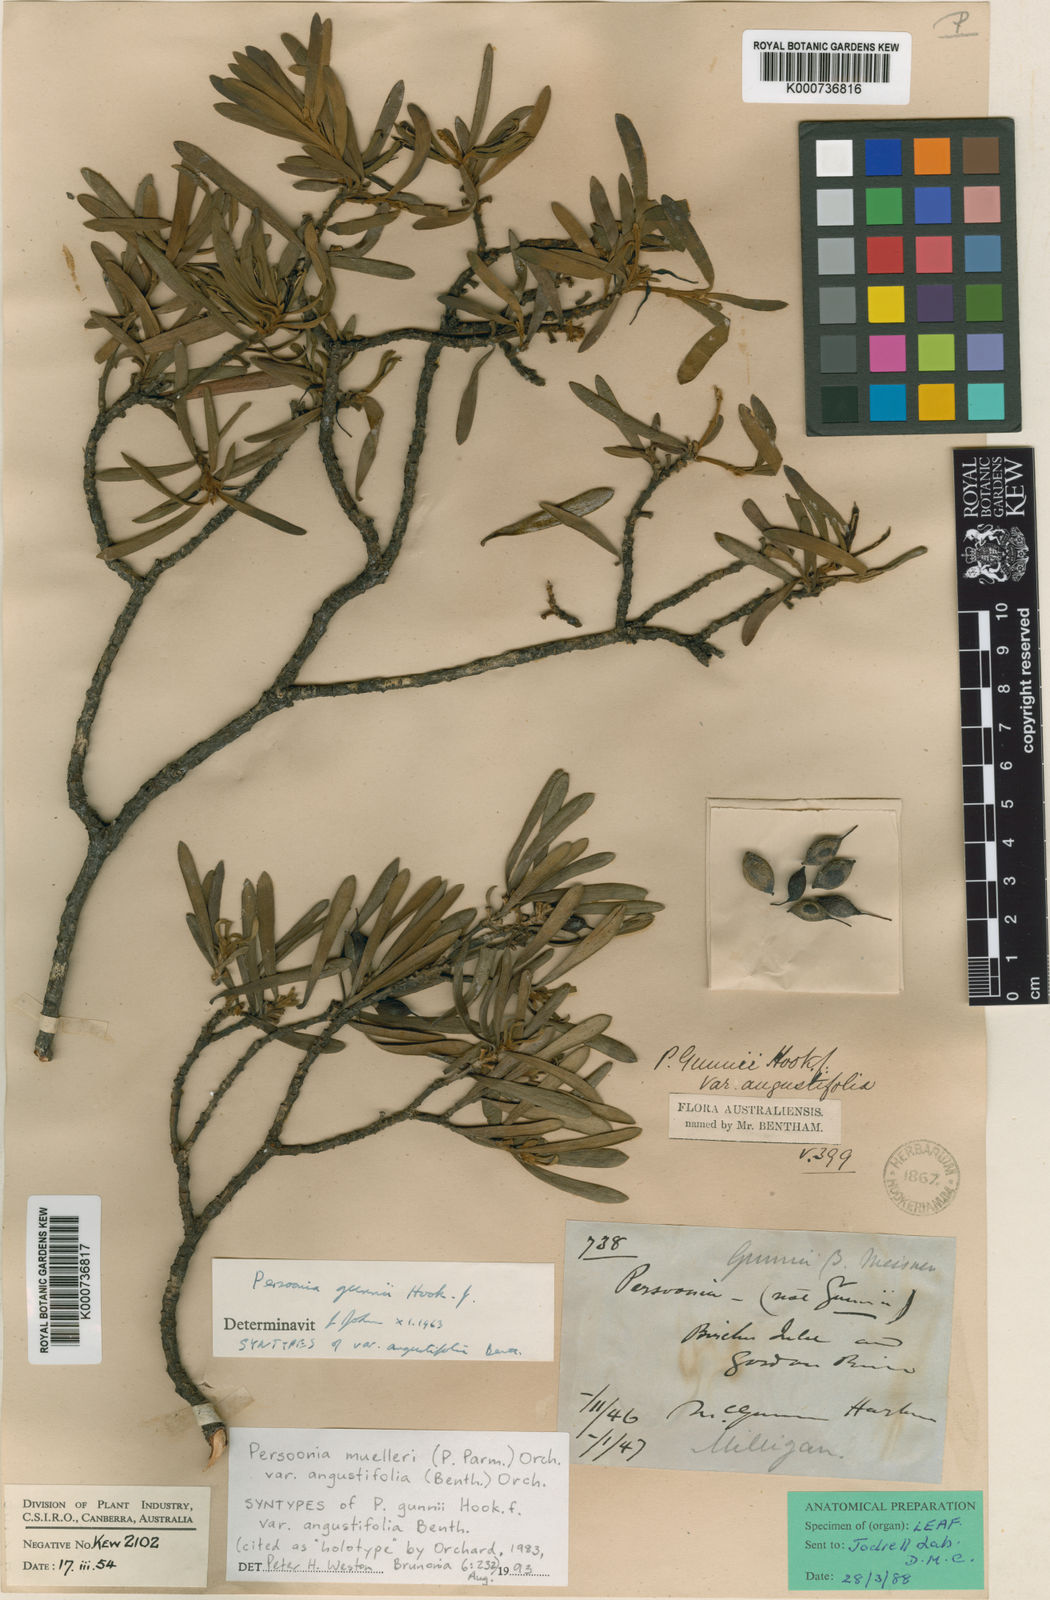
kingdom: Plantae
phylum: Tracheophyta
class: Magnoliopsida
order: Proteales
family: Proteaceae
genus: Persoonia
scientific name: Persoonia
